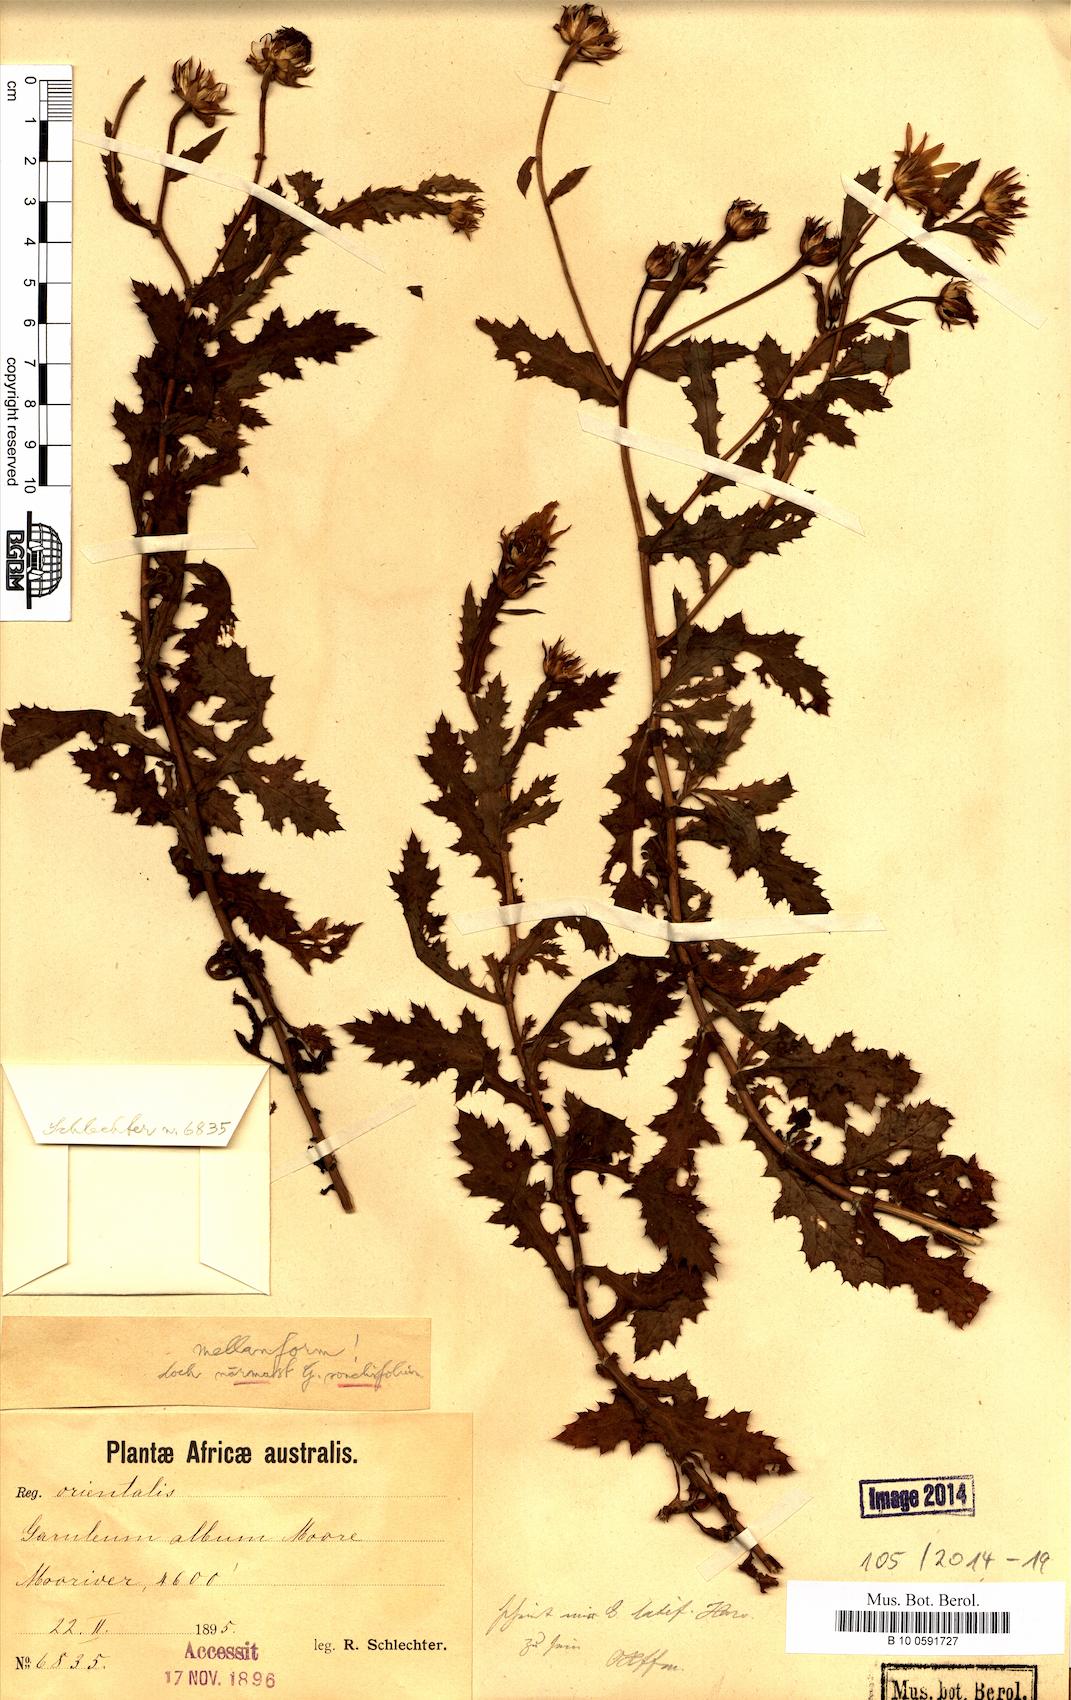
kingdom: Plantae
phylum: Tracheophyta
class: Magnoliopsida
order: Asterales
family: Asteraceae
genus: Garuleum
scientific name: Garuleum sonchifolium
